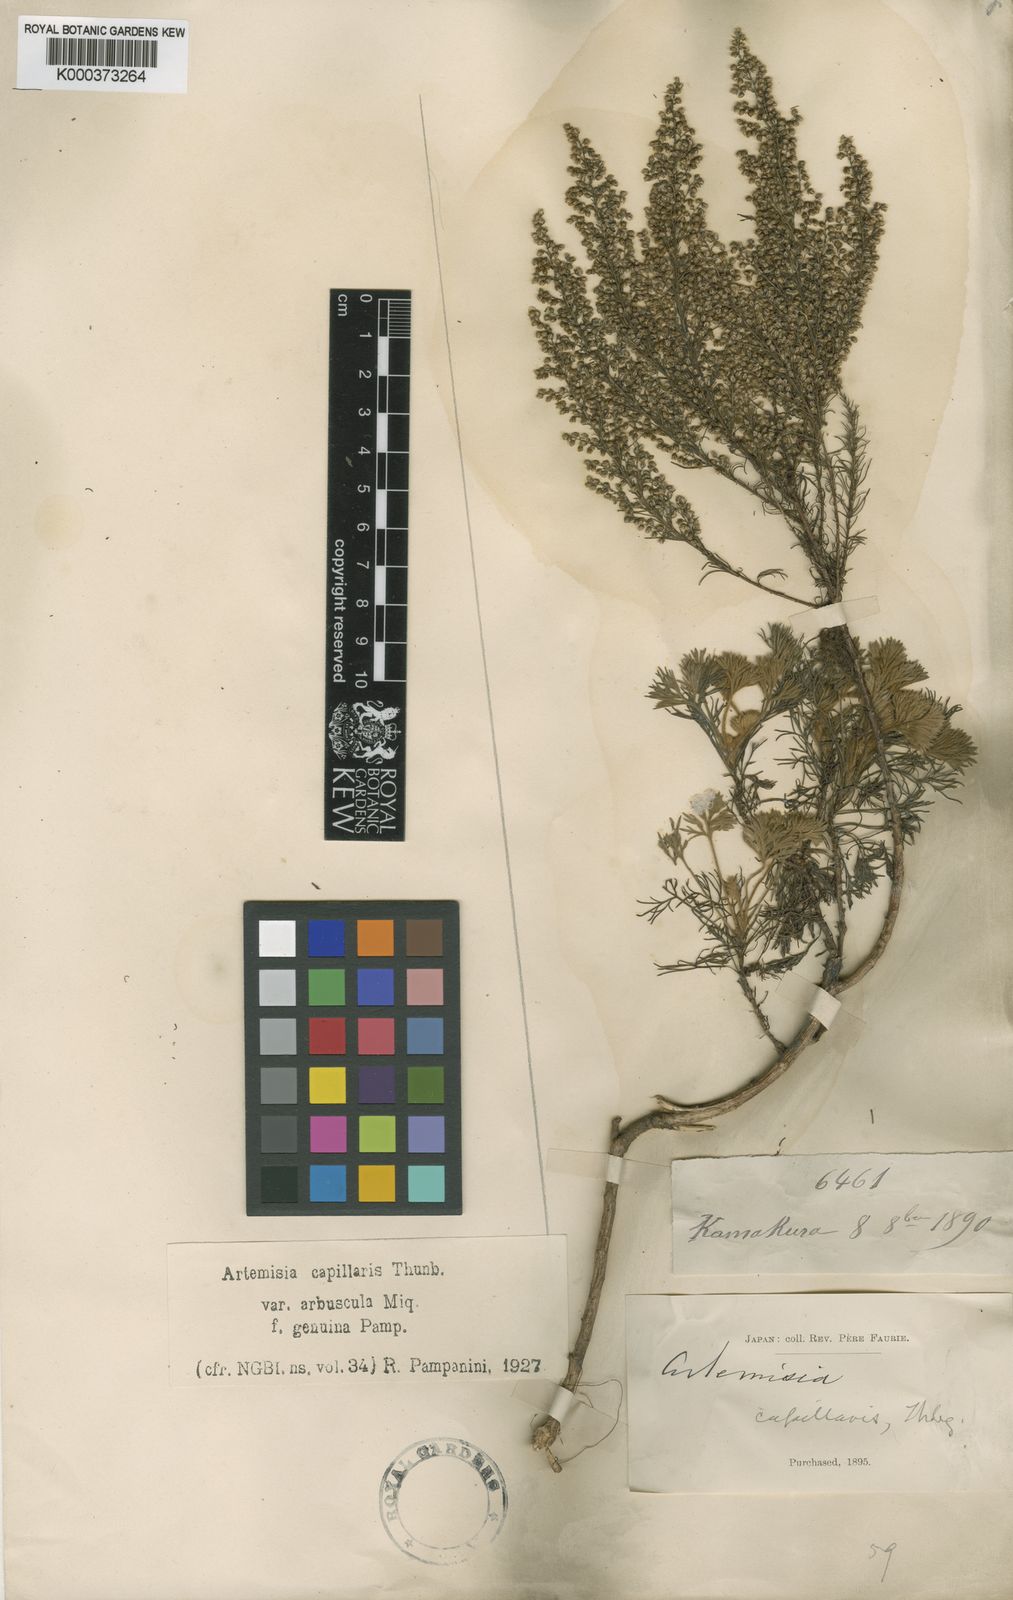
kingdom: Plantae
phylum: Tracheophyta
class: Magnoliopsida
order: Asterales
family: Asteraceae
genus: Artemisia
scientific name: Artemisia capillaris
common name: Yin-chen wormwood
